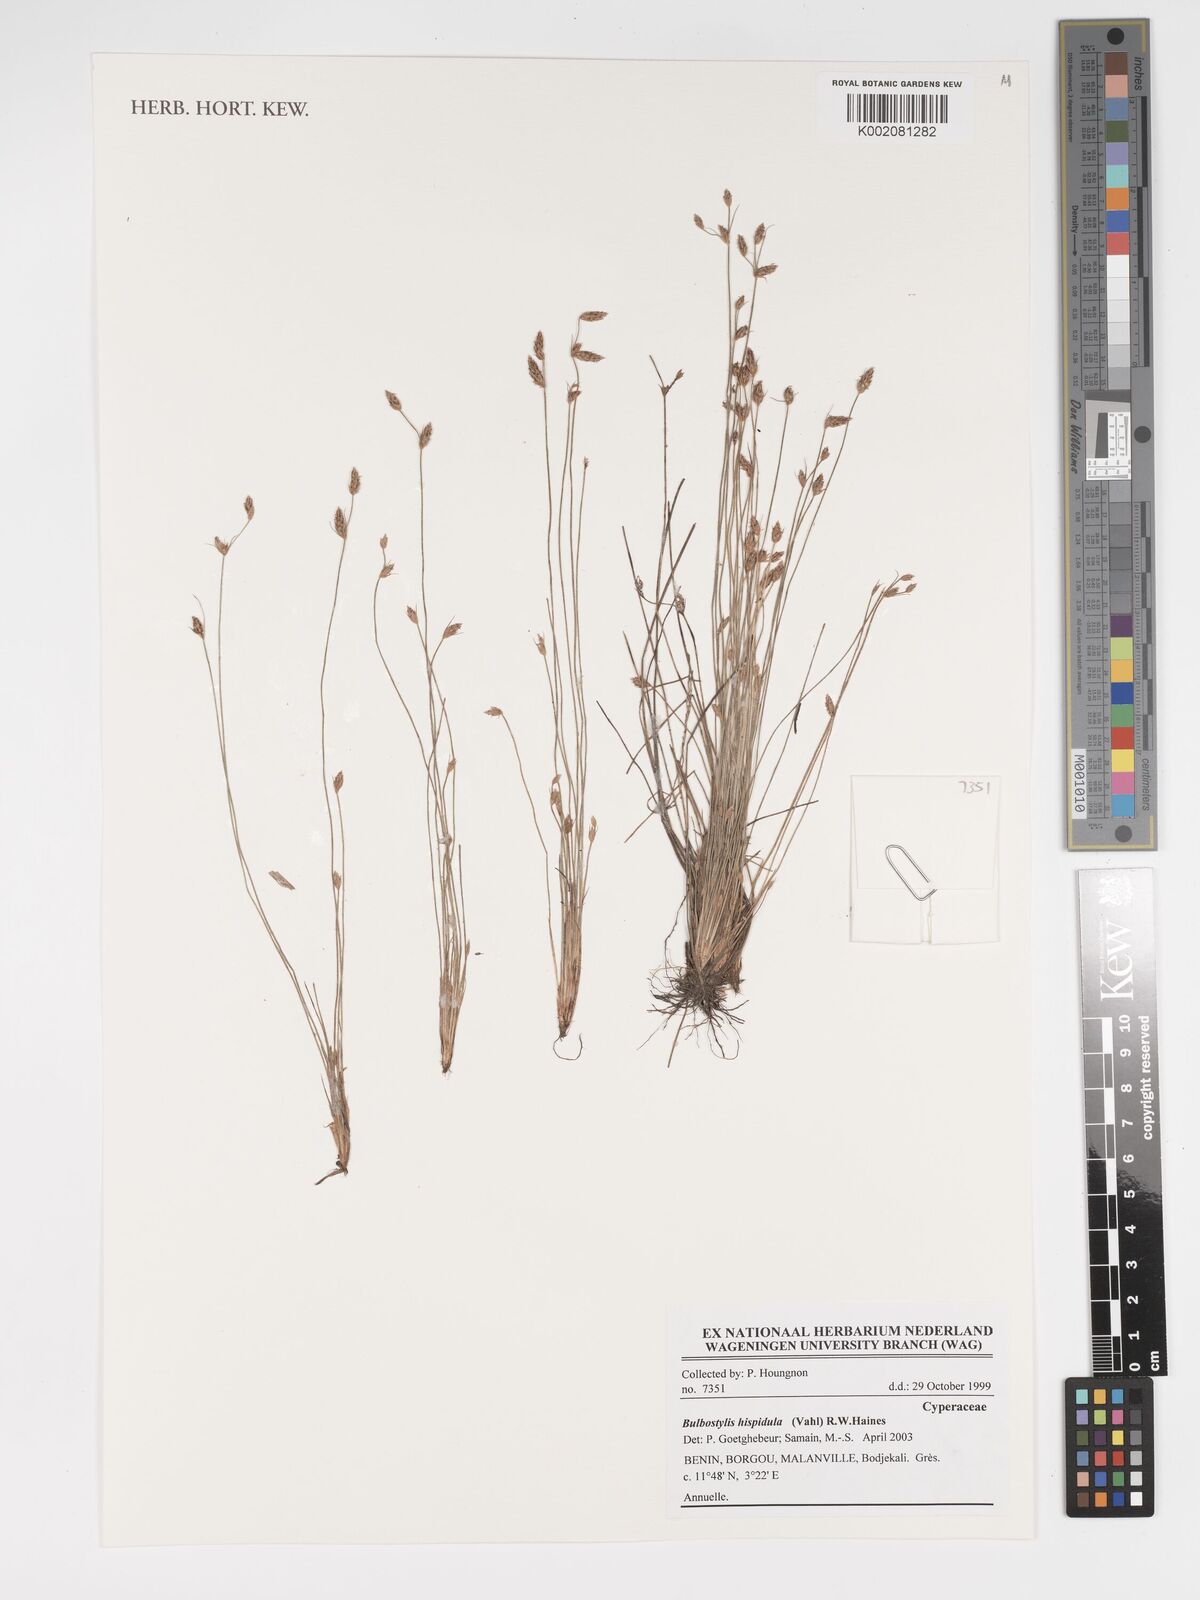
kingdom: Plantae
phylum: Tracheophyta
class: Liliopsida
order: Poales
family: Cyperaceae
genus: Bulbostylis
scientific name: Bulbostylis hispidula
